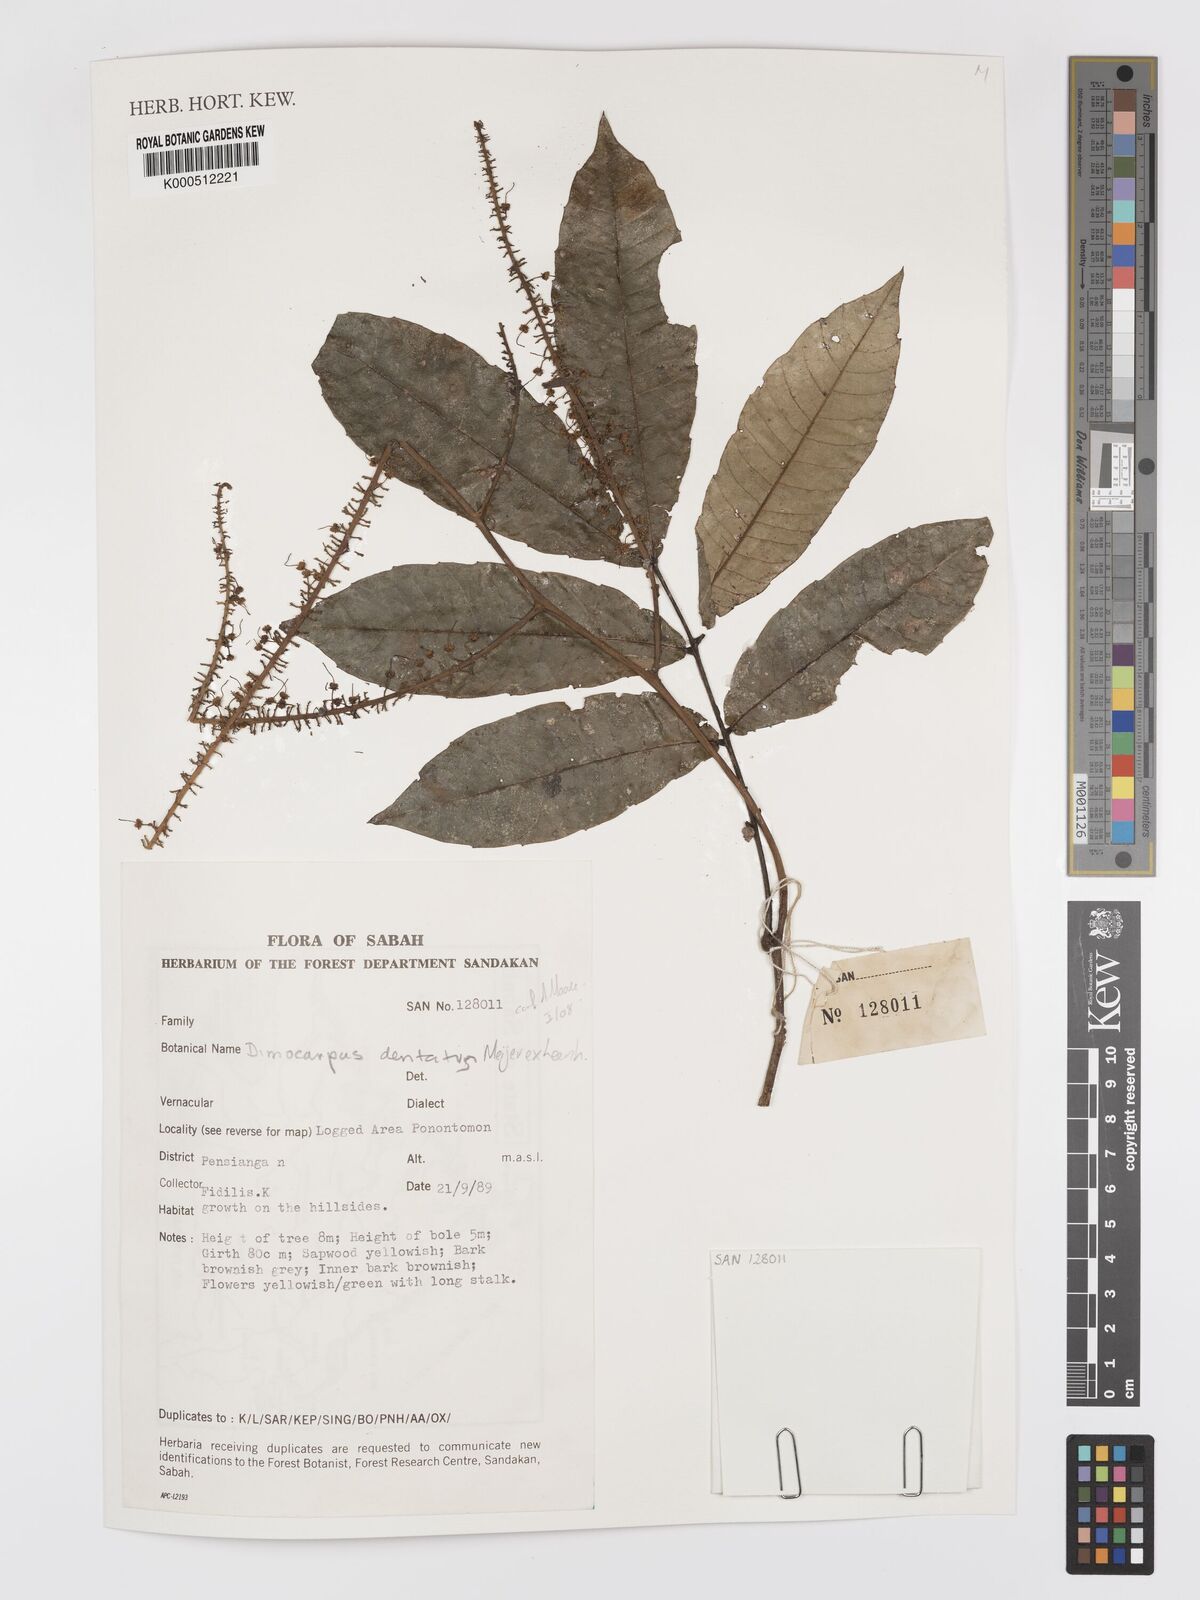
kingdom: Plantae
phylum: Tracheophyta
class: Magnoliopsida
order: Sapindales
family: Sapindaceae
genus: Dimocarpus
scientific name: Dimocarpus dentatus
